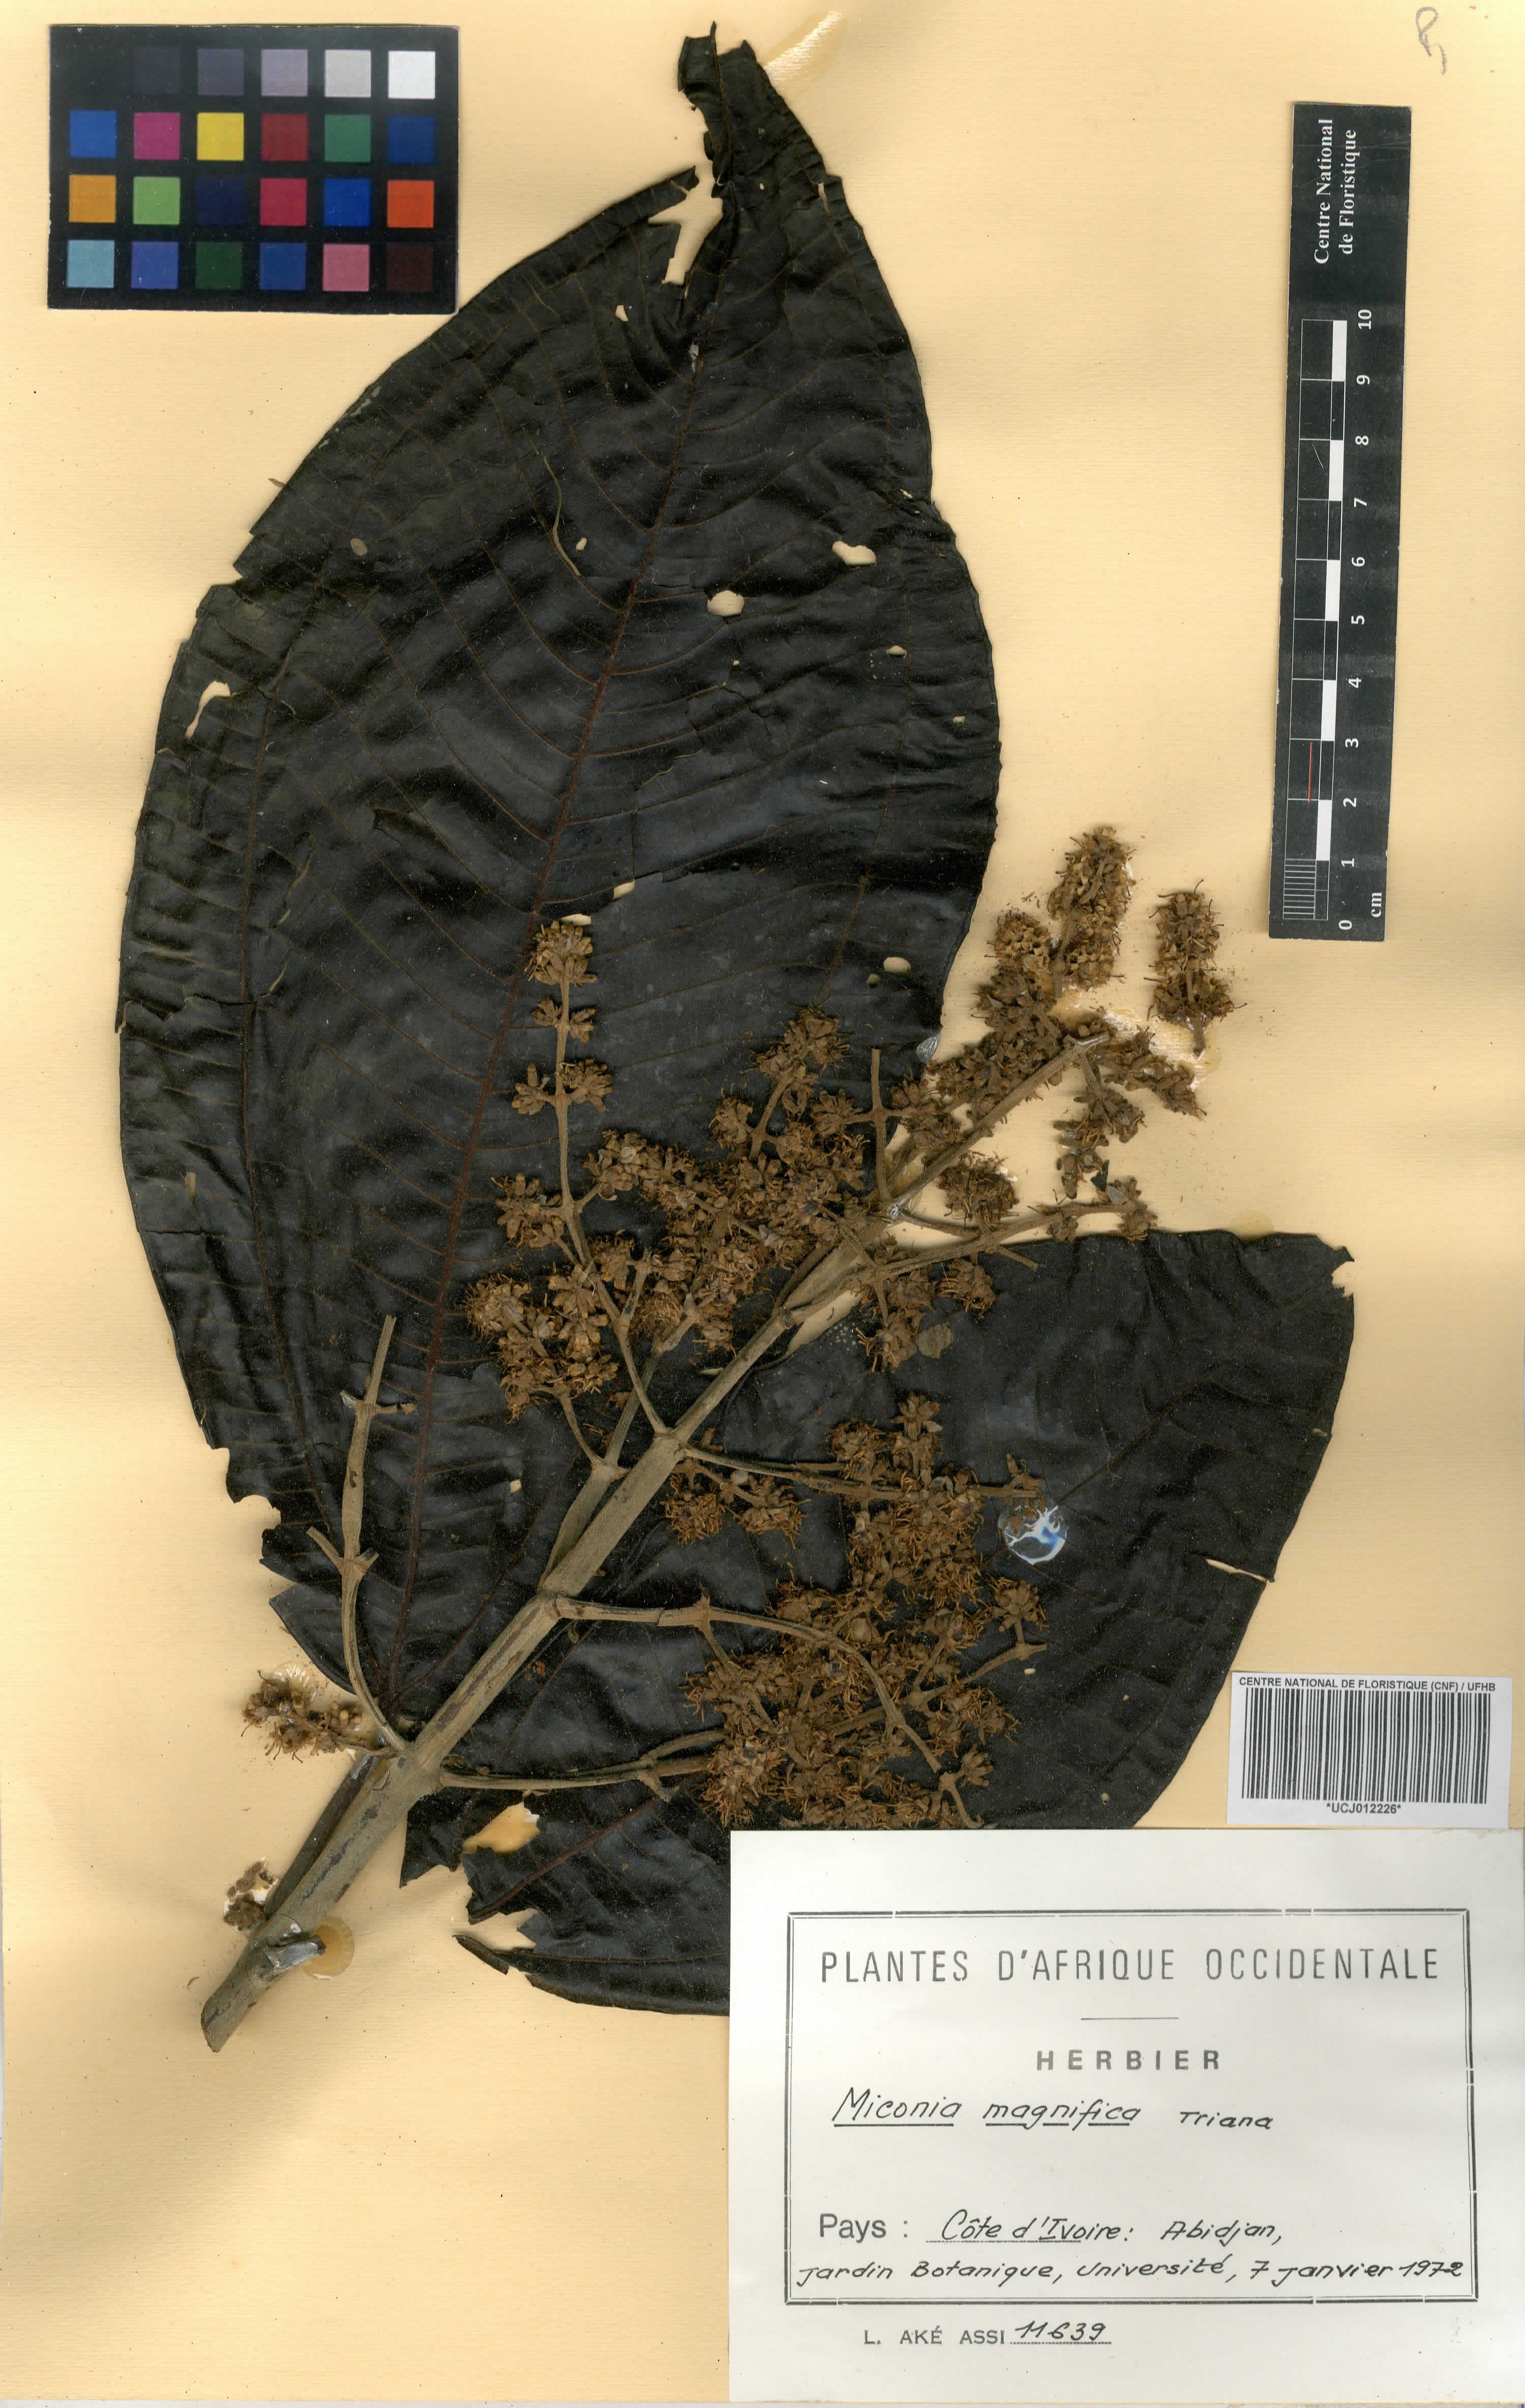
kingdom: Plantae
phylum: Tracheophyta
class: Magnoliopsida
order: Myrtales
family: Melastomataceae
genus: Miconia
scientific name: Miconia calvescens
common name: Purple plague
